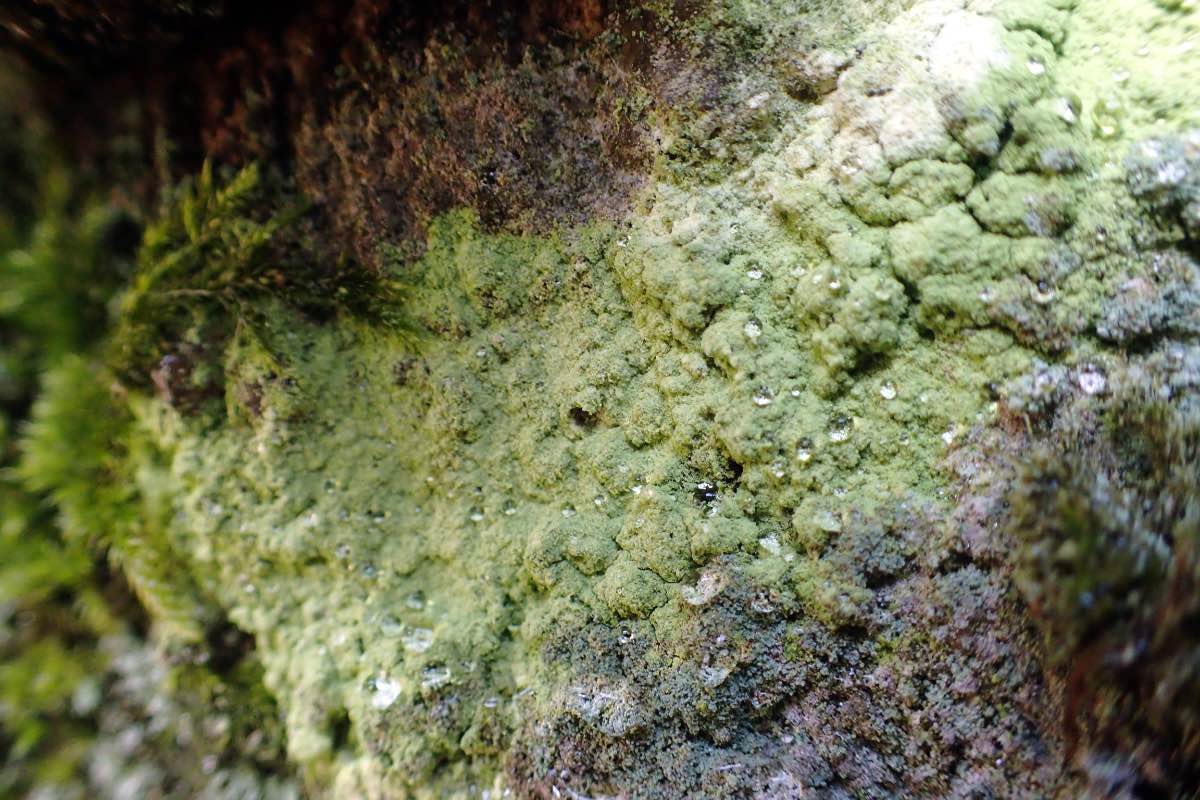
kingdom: Fungi
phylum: Ascomycota
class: Lecanoromycetes
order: Lecanorales
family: Psilolechiaceae
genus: Psilolechia
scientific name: Psilolechia lucida
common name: gul skyggelav
